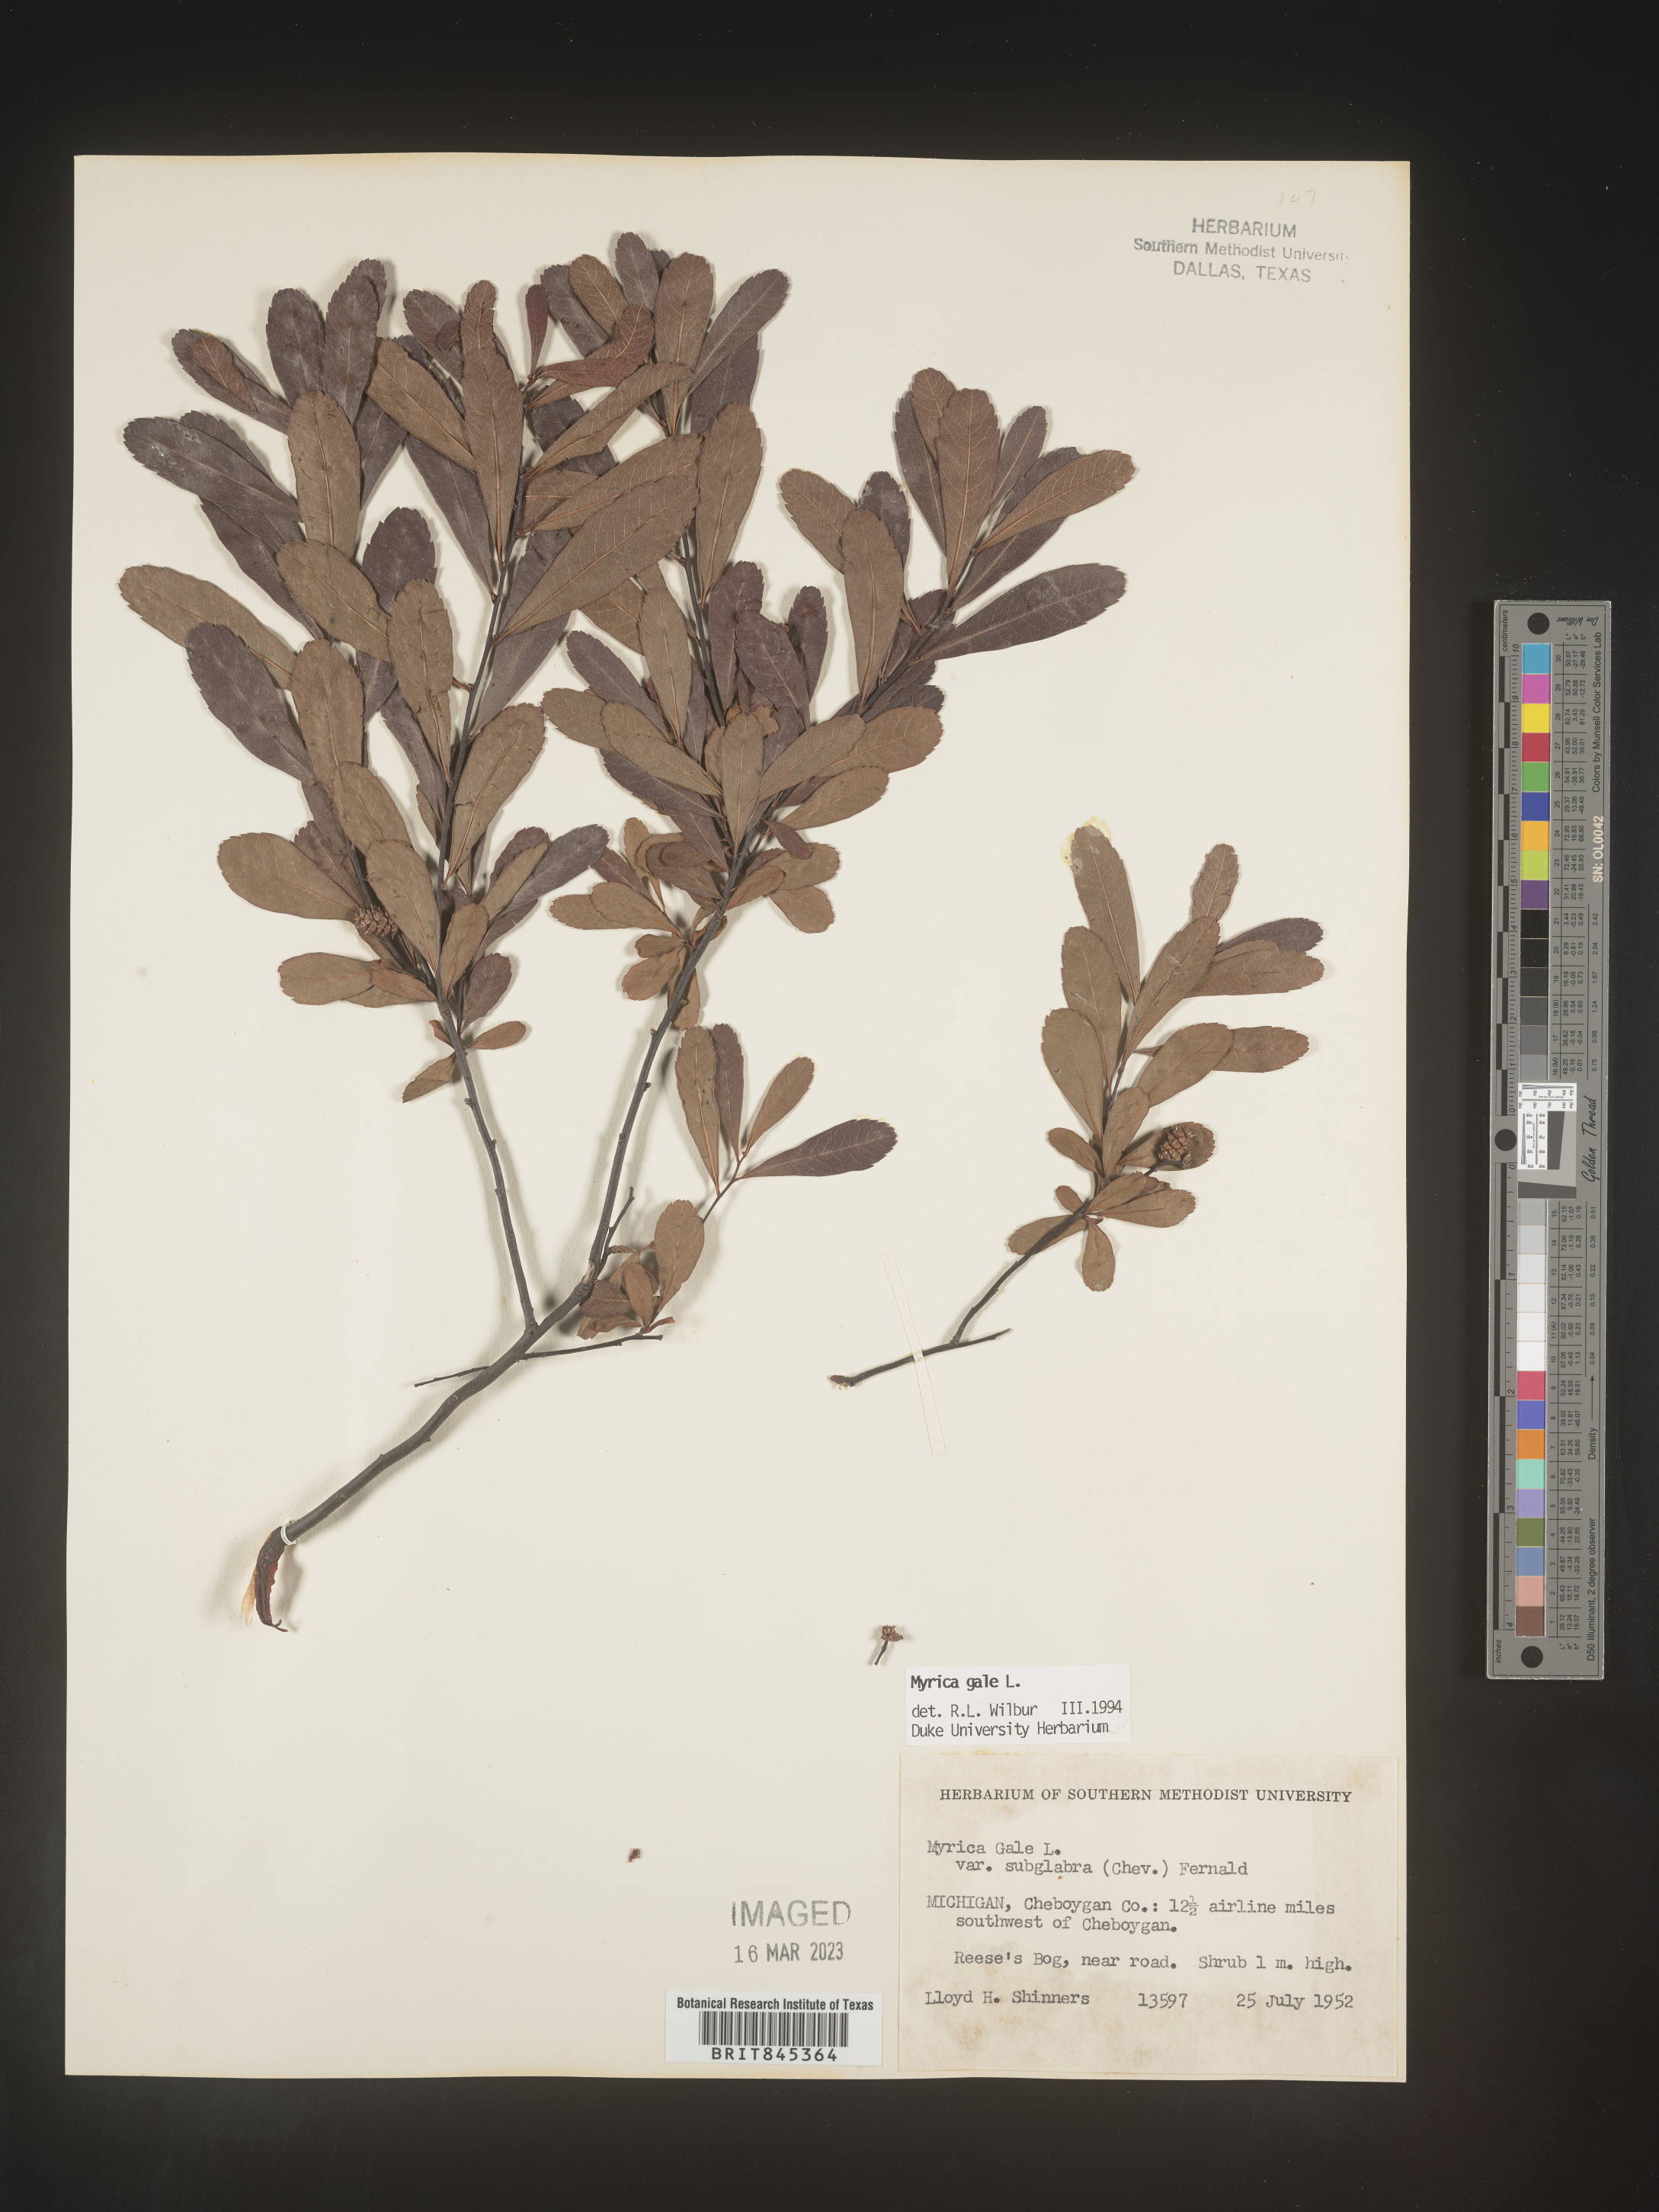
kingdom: Plantae
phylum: Tracheophyta
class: Magnoliopsida
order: Fagales
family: Myricaceae
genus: Myrica
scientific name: Myrica gale
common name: Sweet gale
